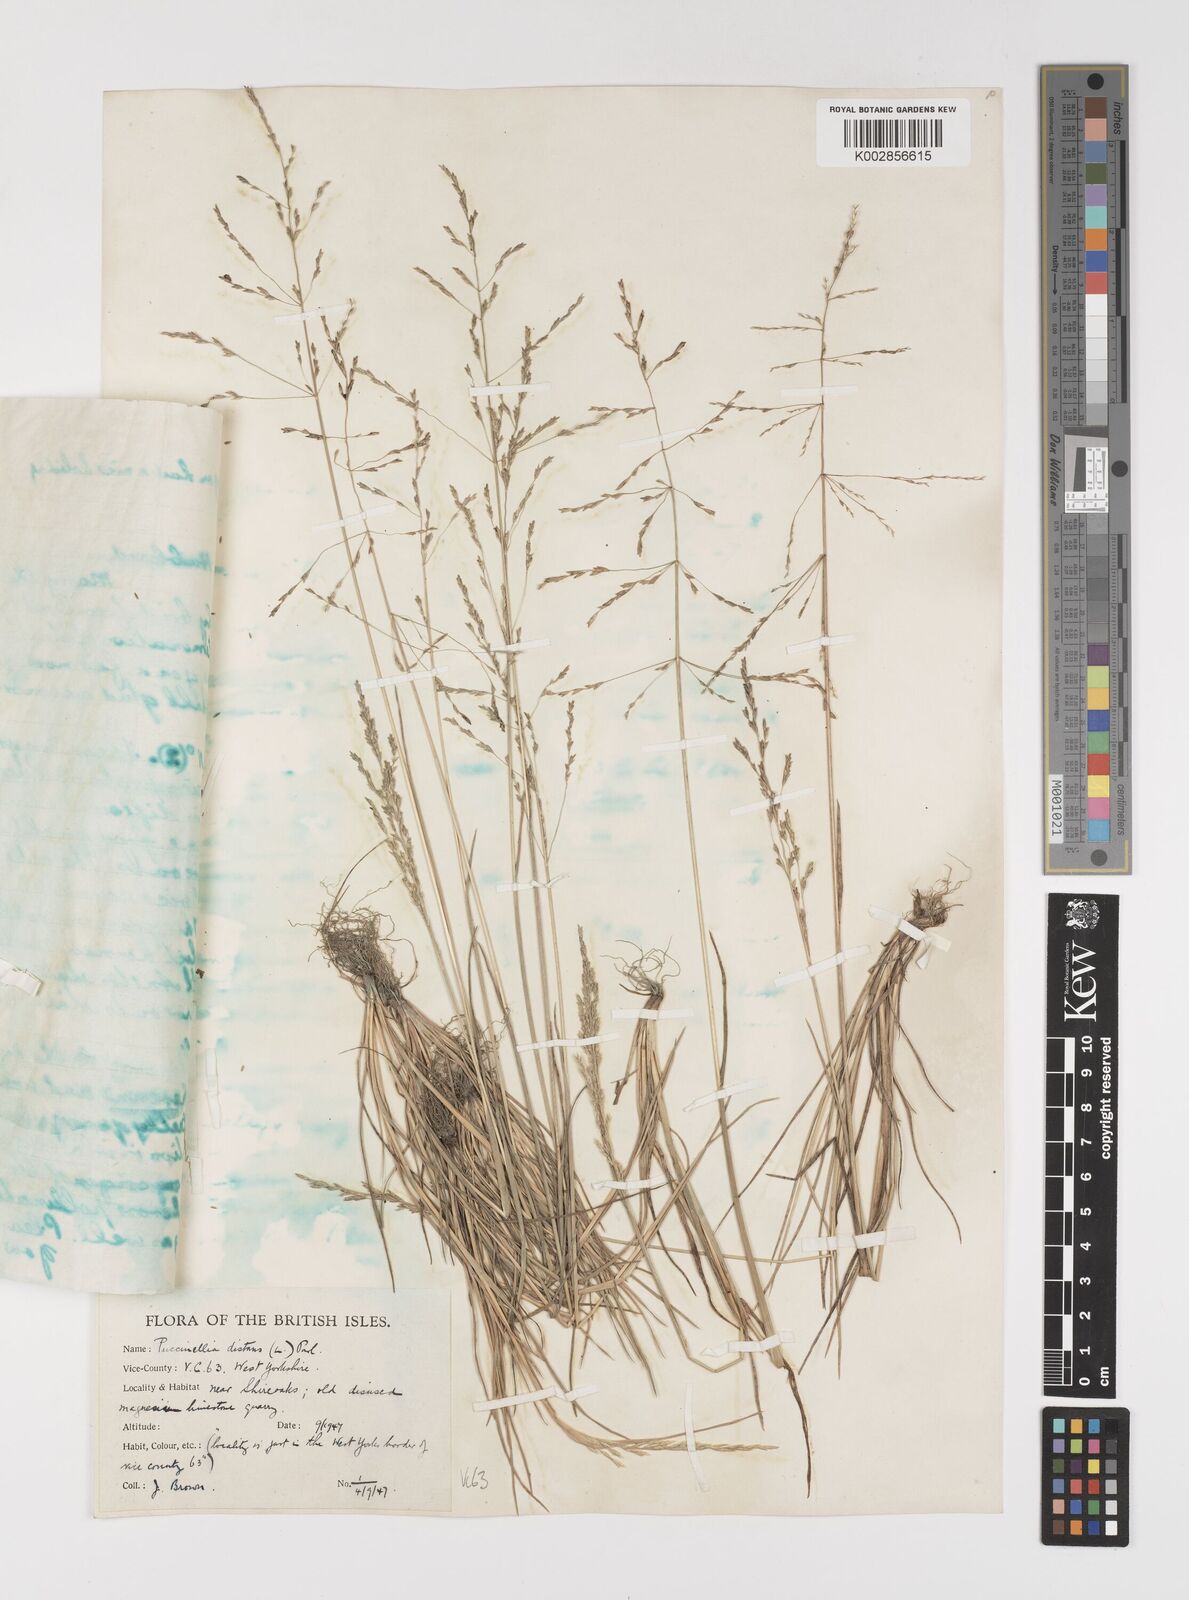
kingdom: Plantae
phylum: Tracheophyta
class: Liliopsida
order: Poales
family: Poaceae
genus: Puccinellia
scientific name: Puccinellia distans
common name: Weeping alkaligrass
